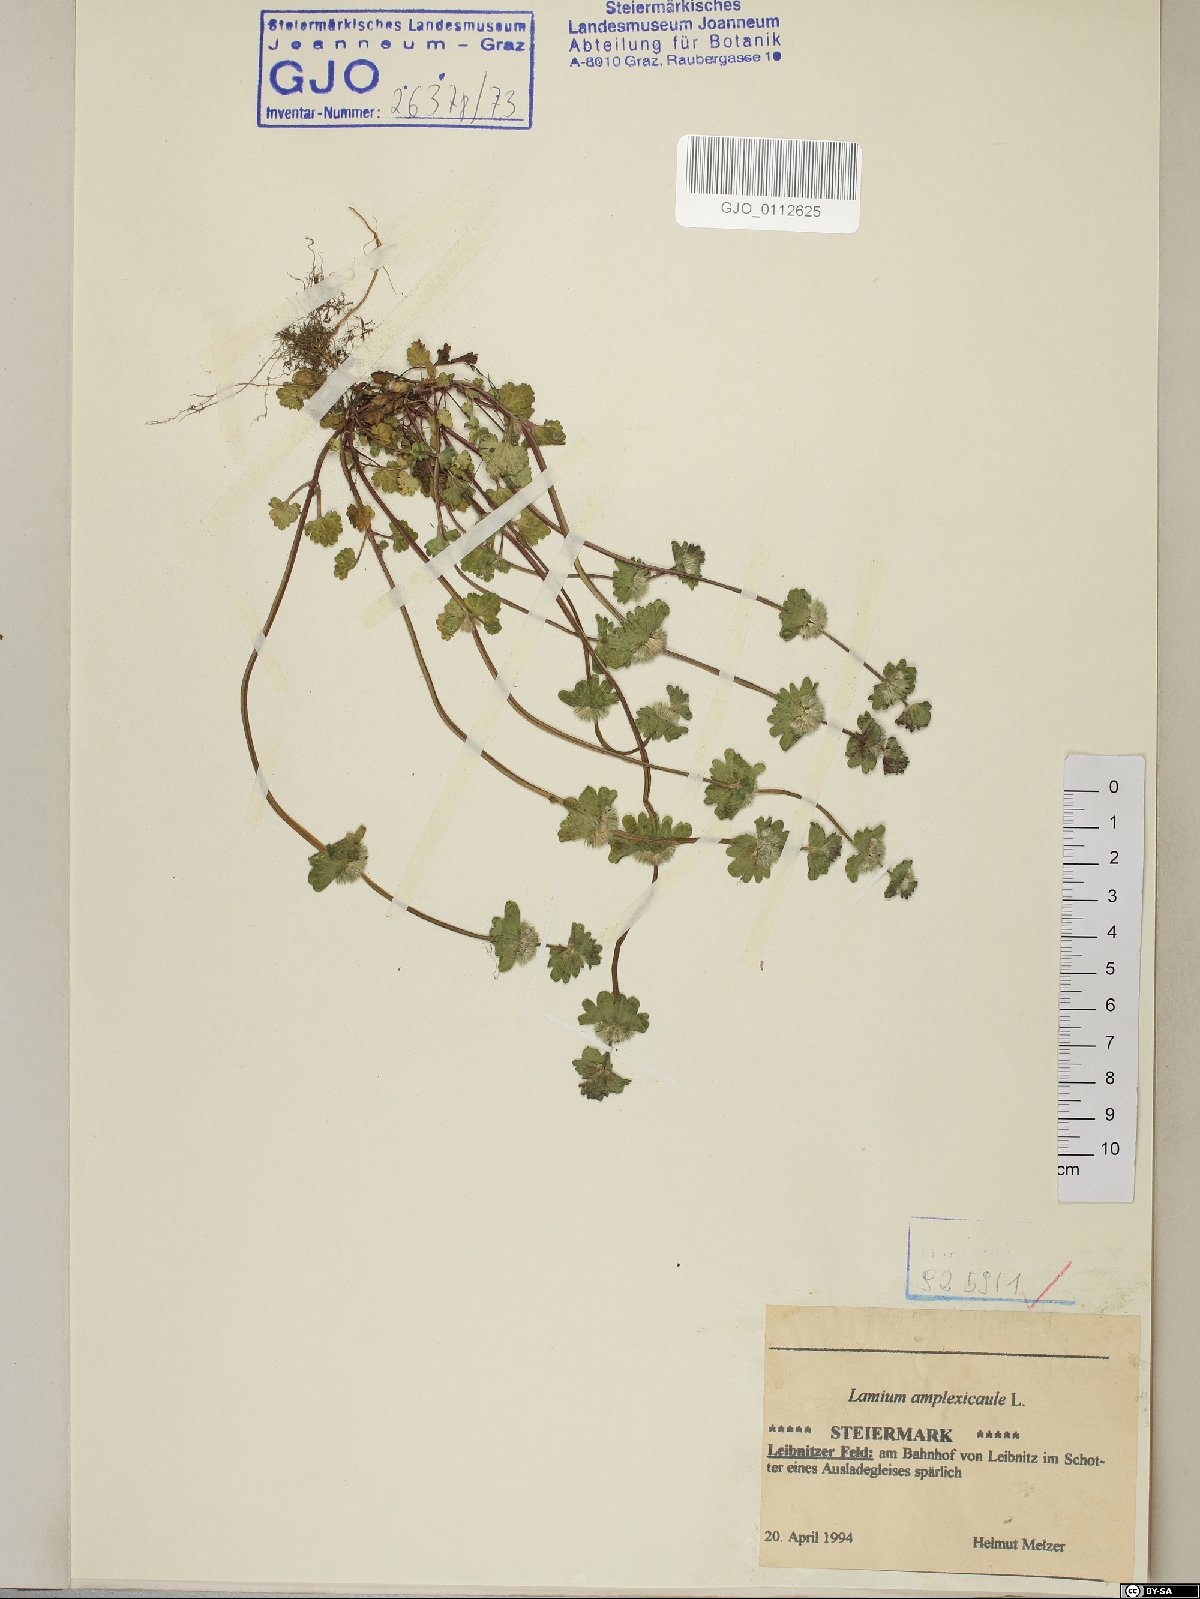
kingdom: Plantae
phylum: Tracheophyta
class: Magnoliopsida
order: Lamiales
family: Lamiaceae
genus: Lamium
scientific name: Lamium amplexicaule
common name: Henbit dead-nettle
